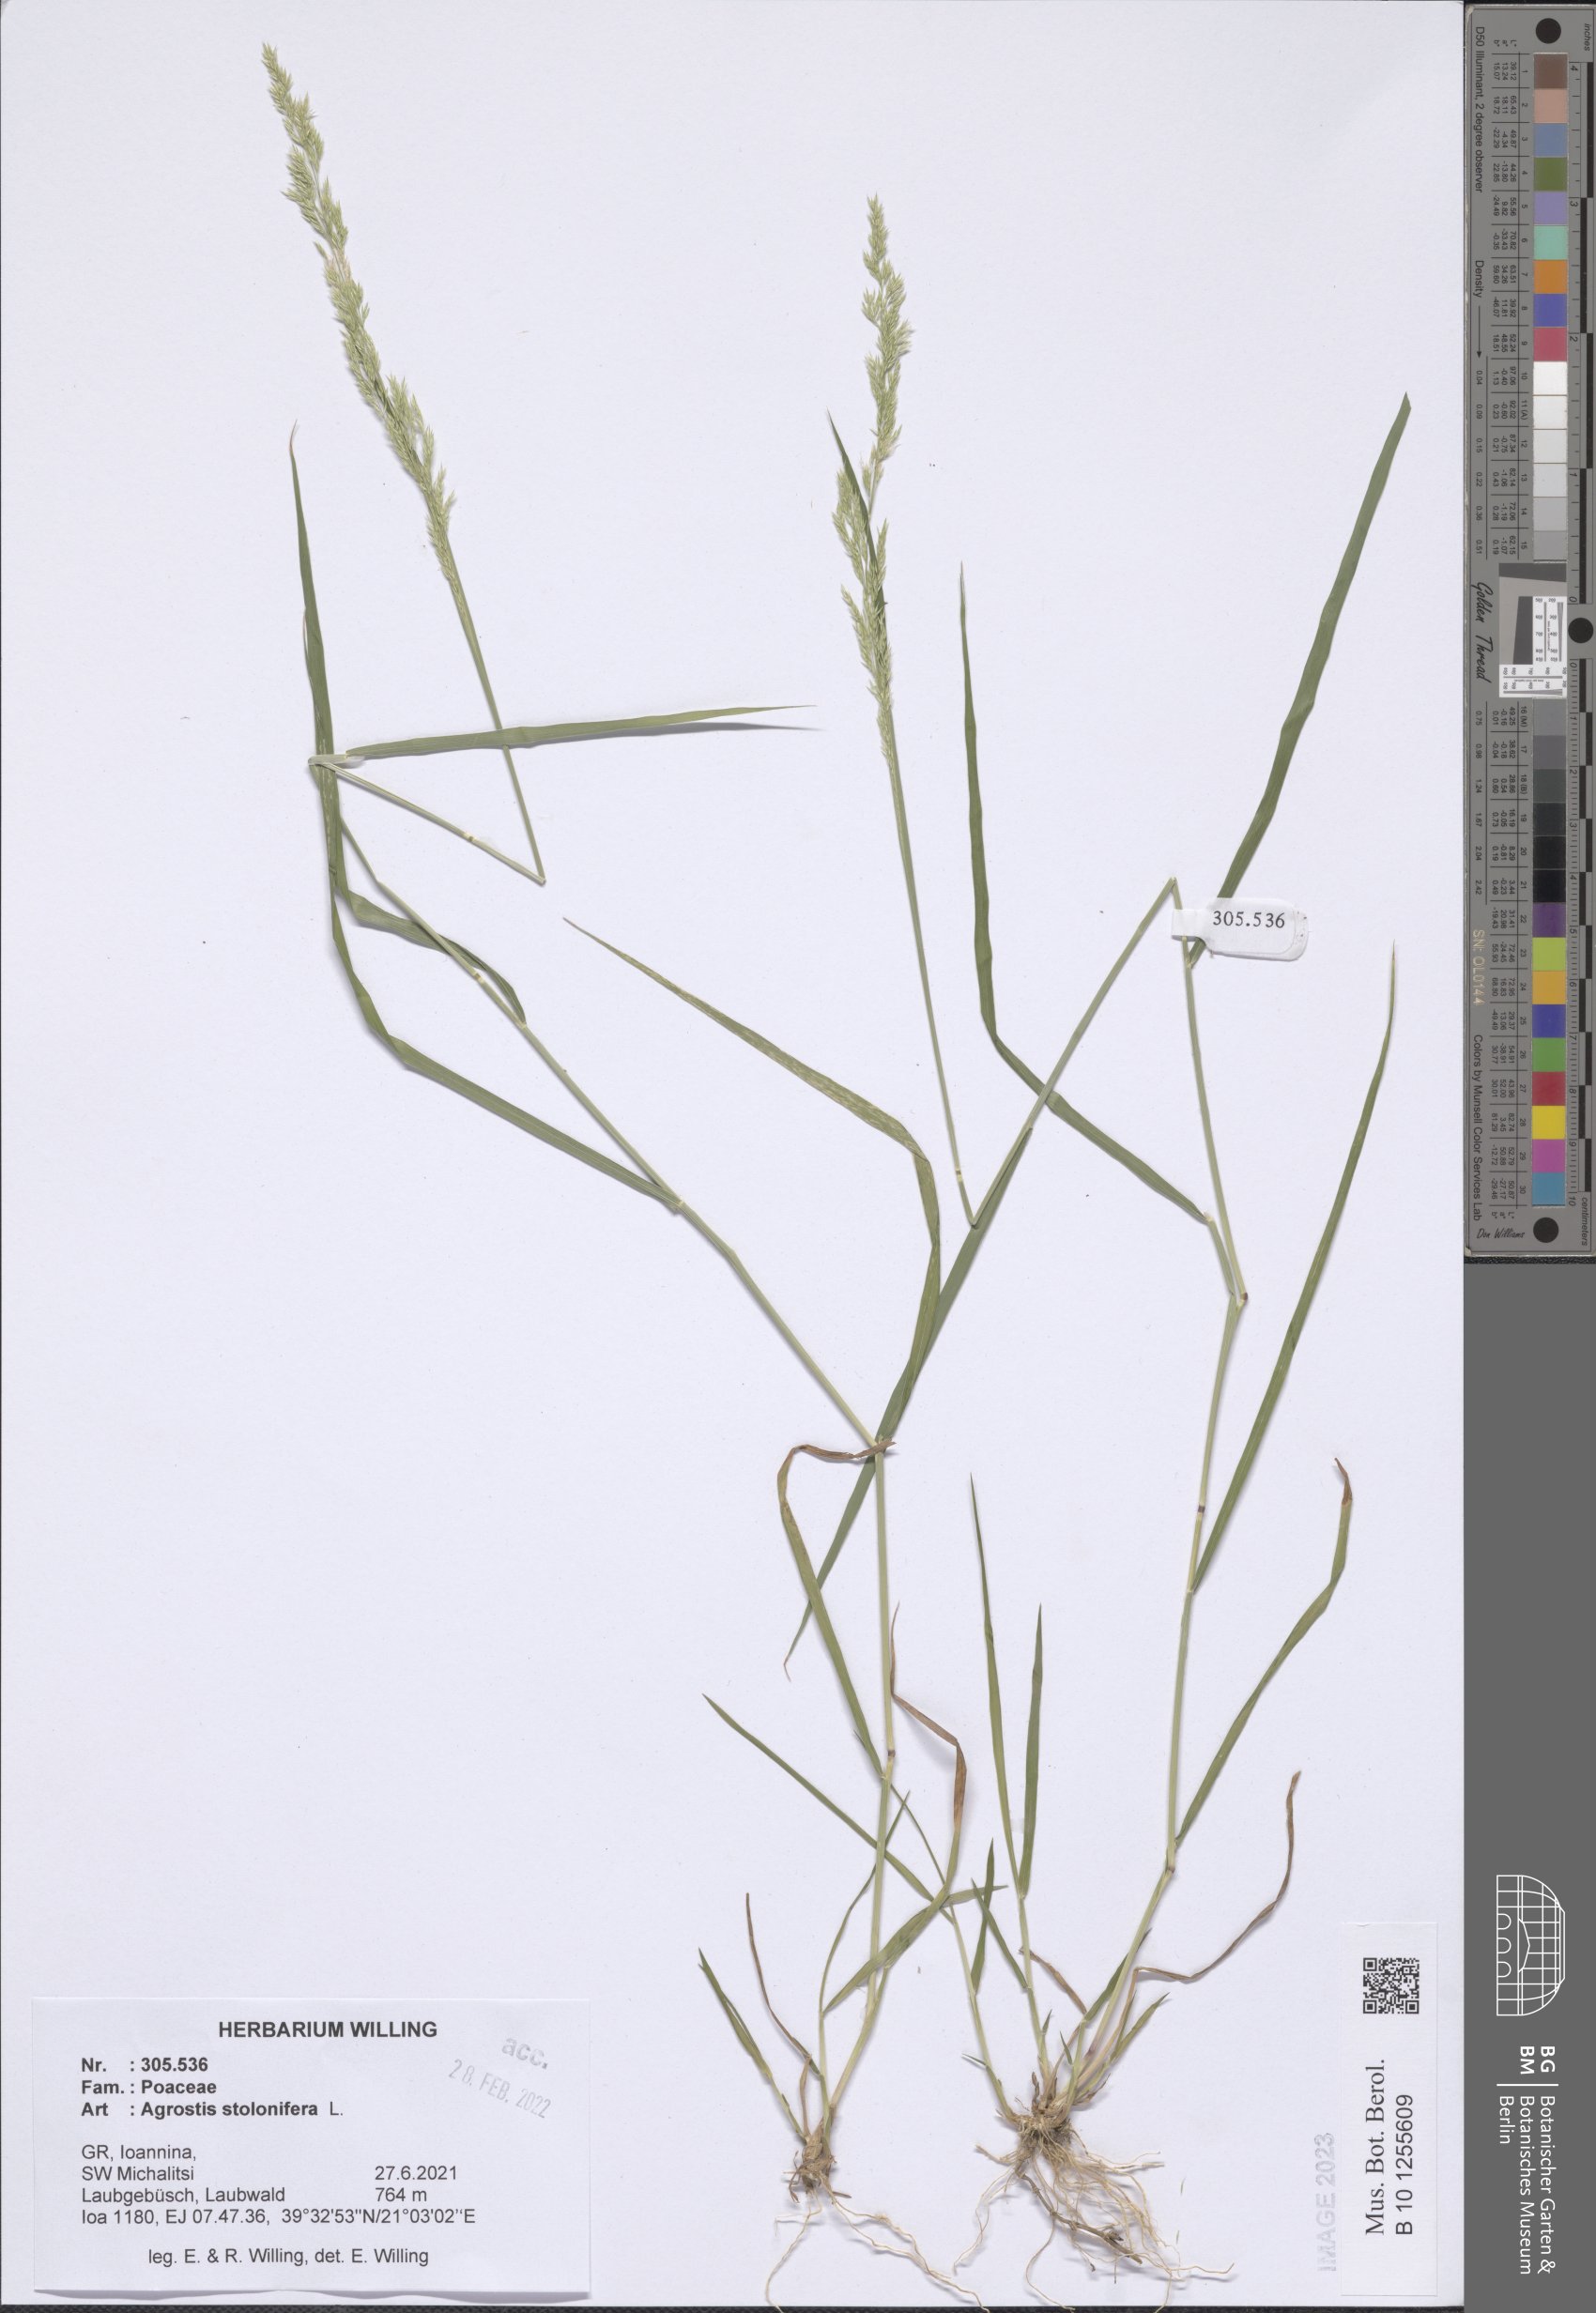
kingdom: Plantae
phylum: Tracheophyta
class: Liliopsida
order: Poales
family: Poaceae
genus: Agrostis
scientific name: Agrostis stolonifera
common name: Creeping bentgrass
